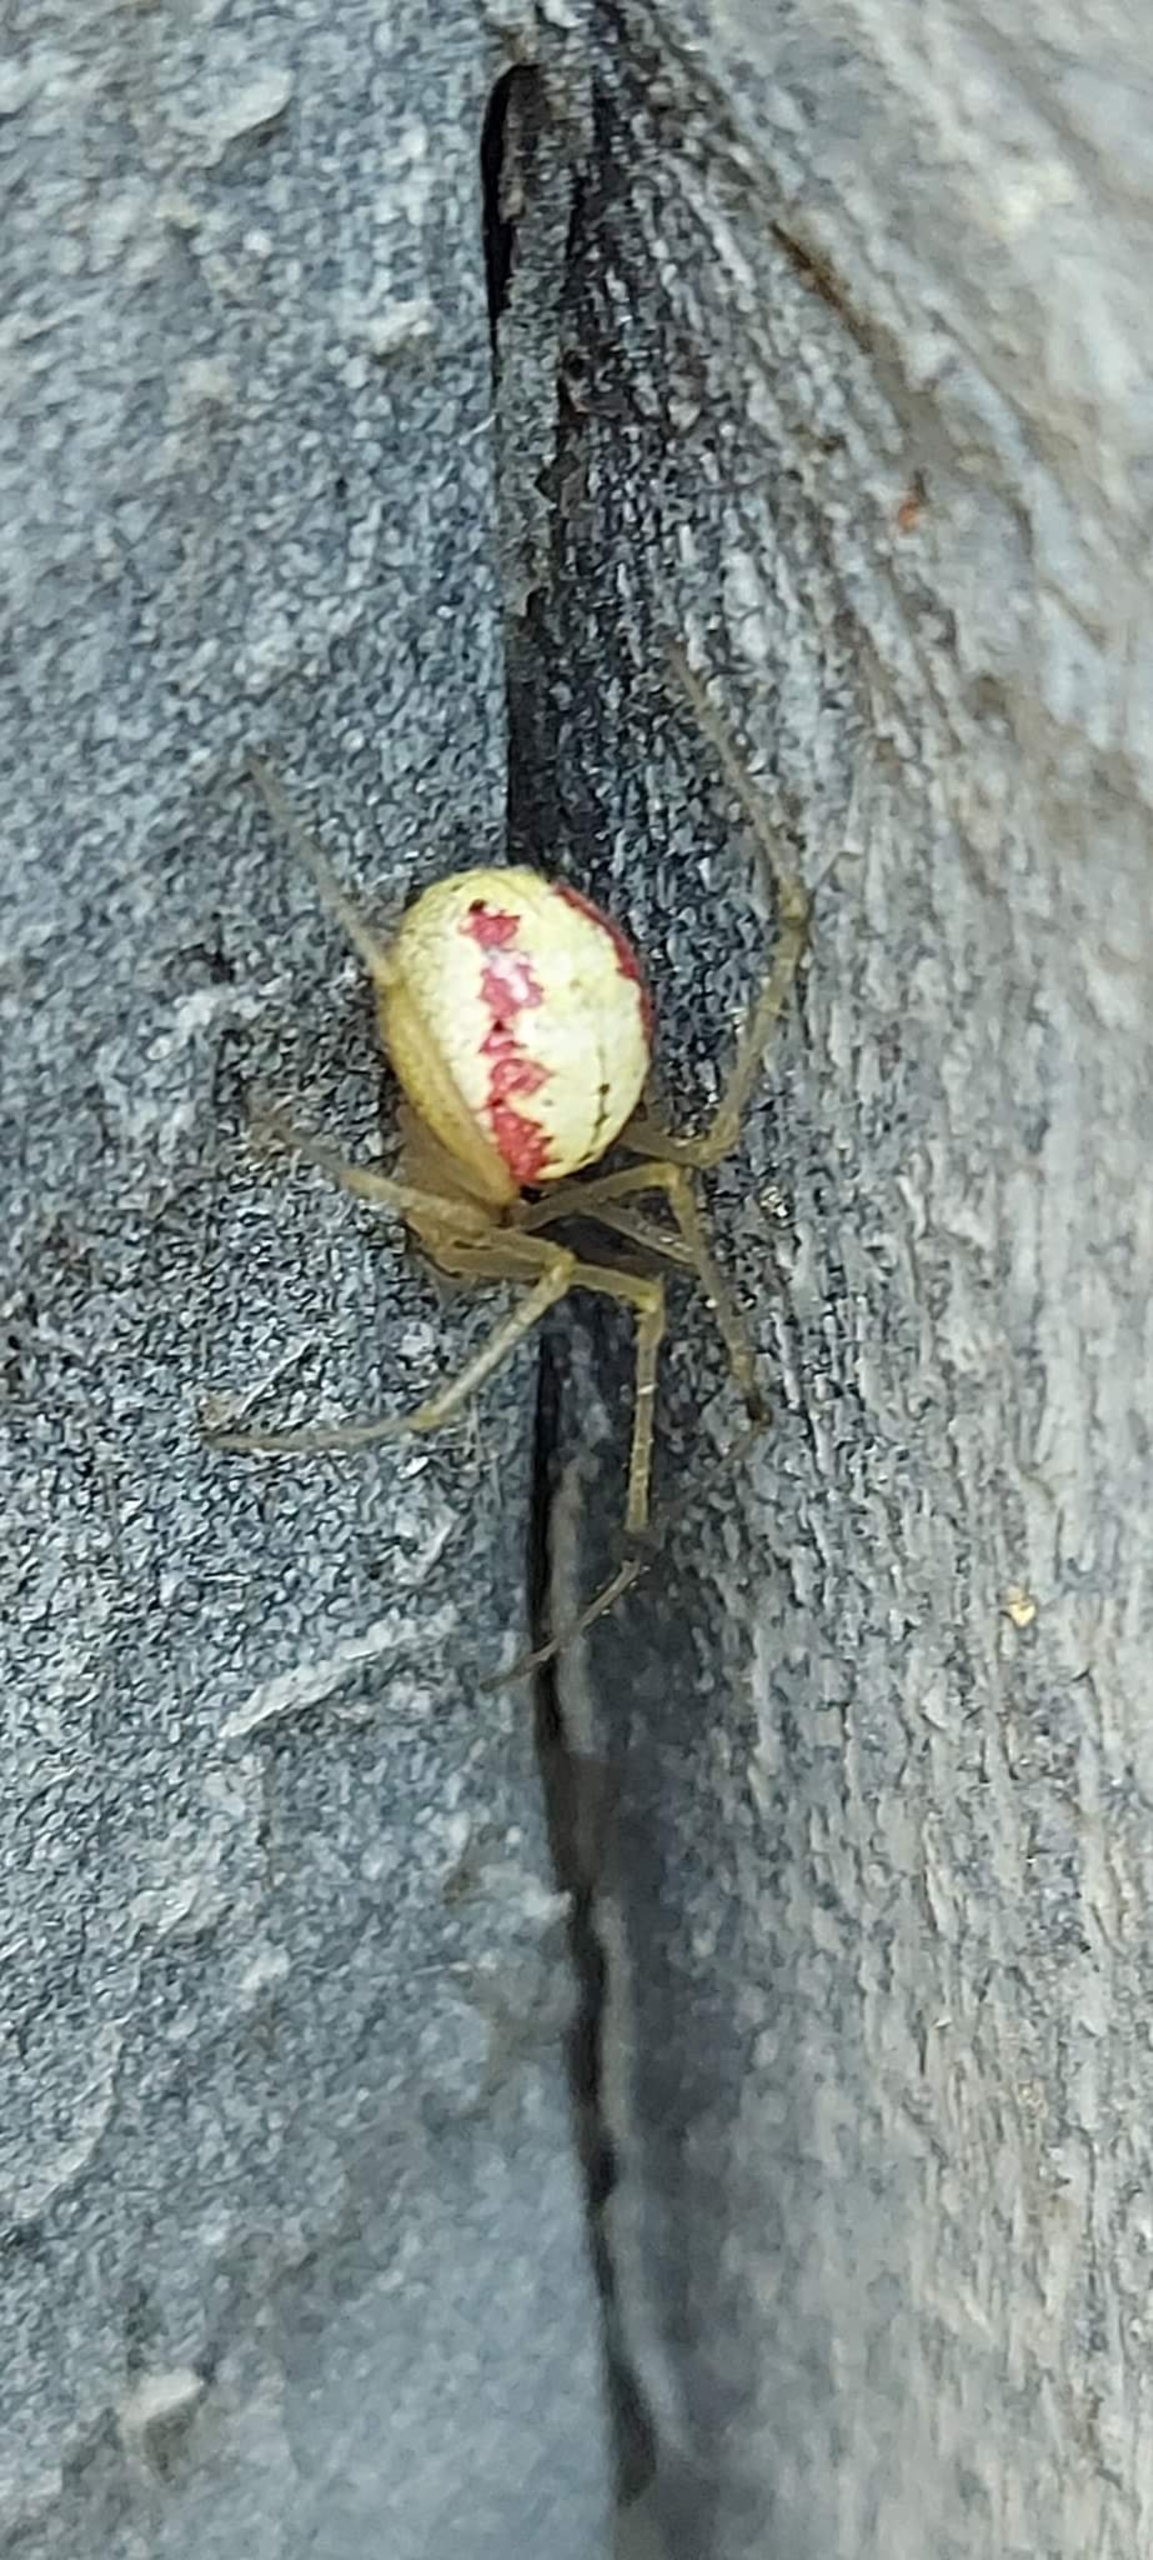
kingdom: Animalia
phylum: Arthropoda
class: Arachnida
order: Araneae
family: Theridiidae
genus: Enoplognatha
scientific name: Enoplognatha
